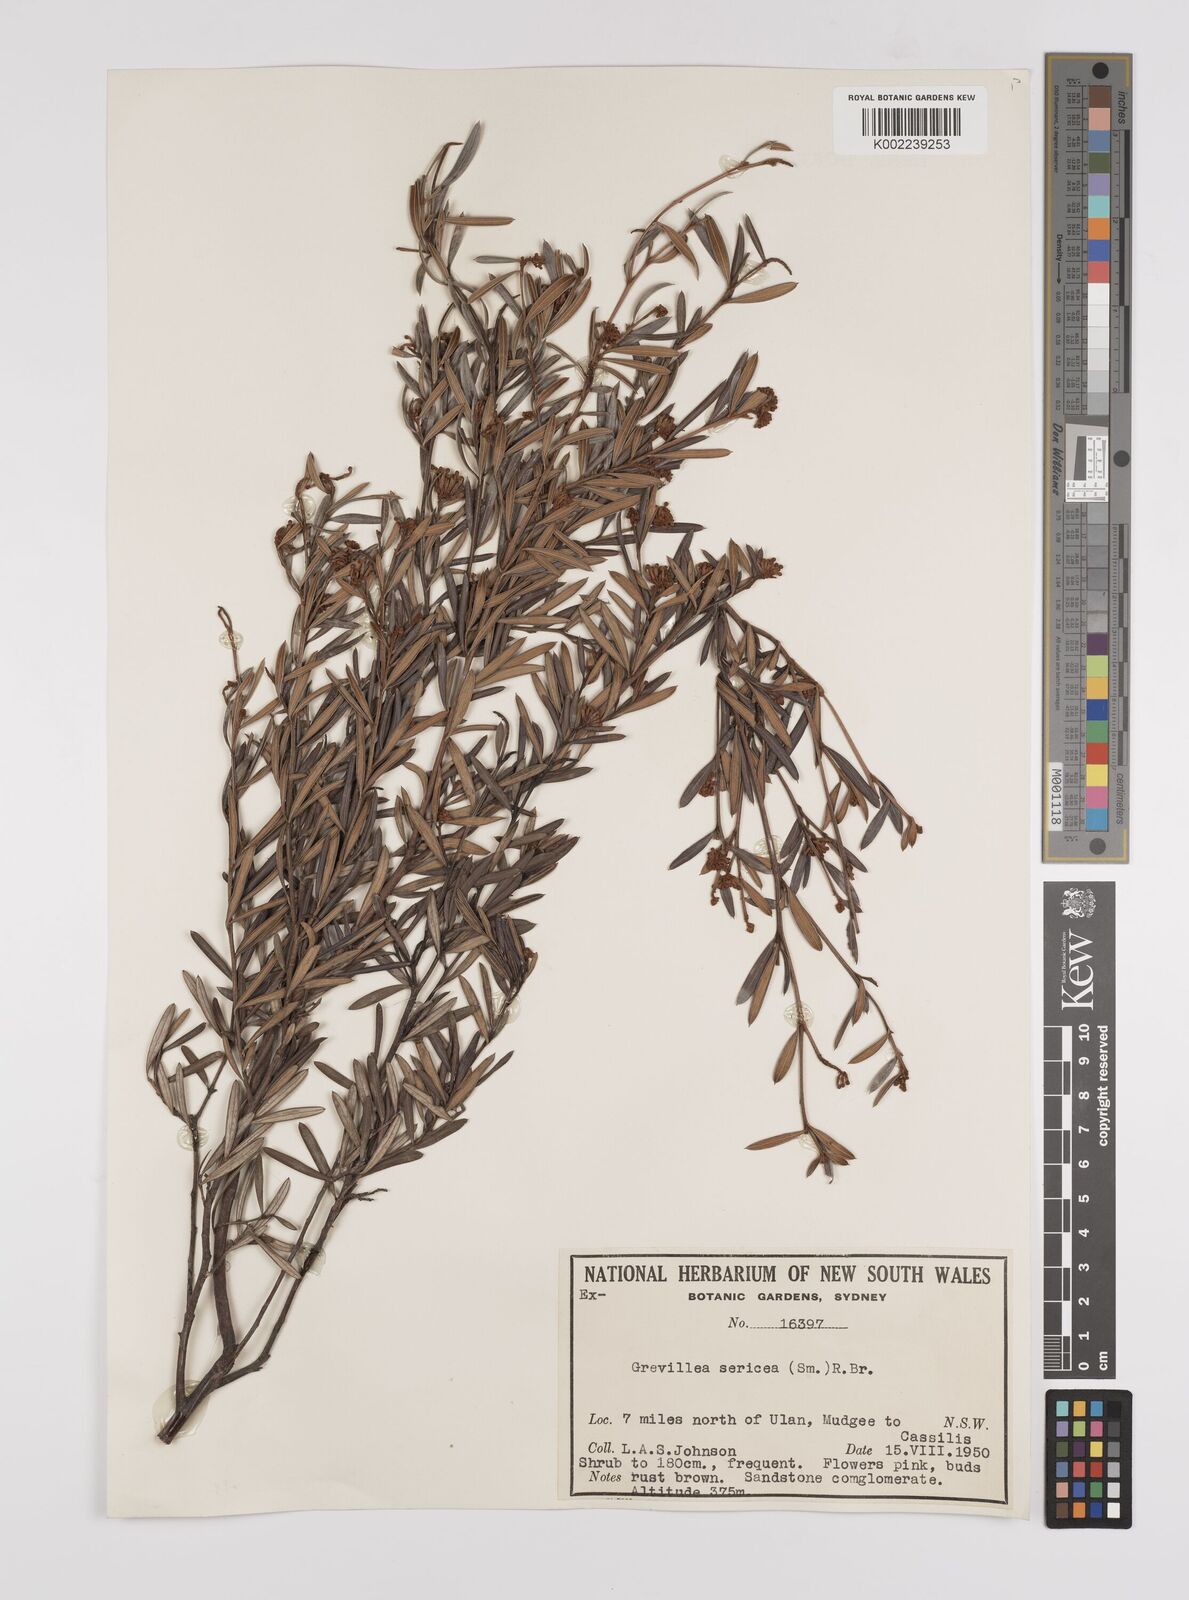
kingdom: Plantae
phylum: Tracheophyta
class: Magnoliopsida
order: Proteales
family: Proteaceae
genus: Grevillea
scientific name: Grevillea sericea
